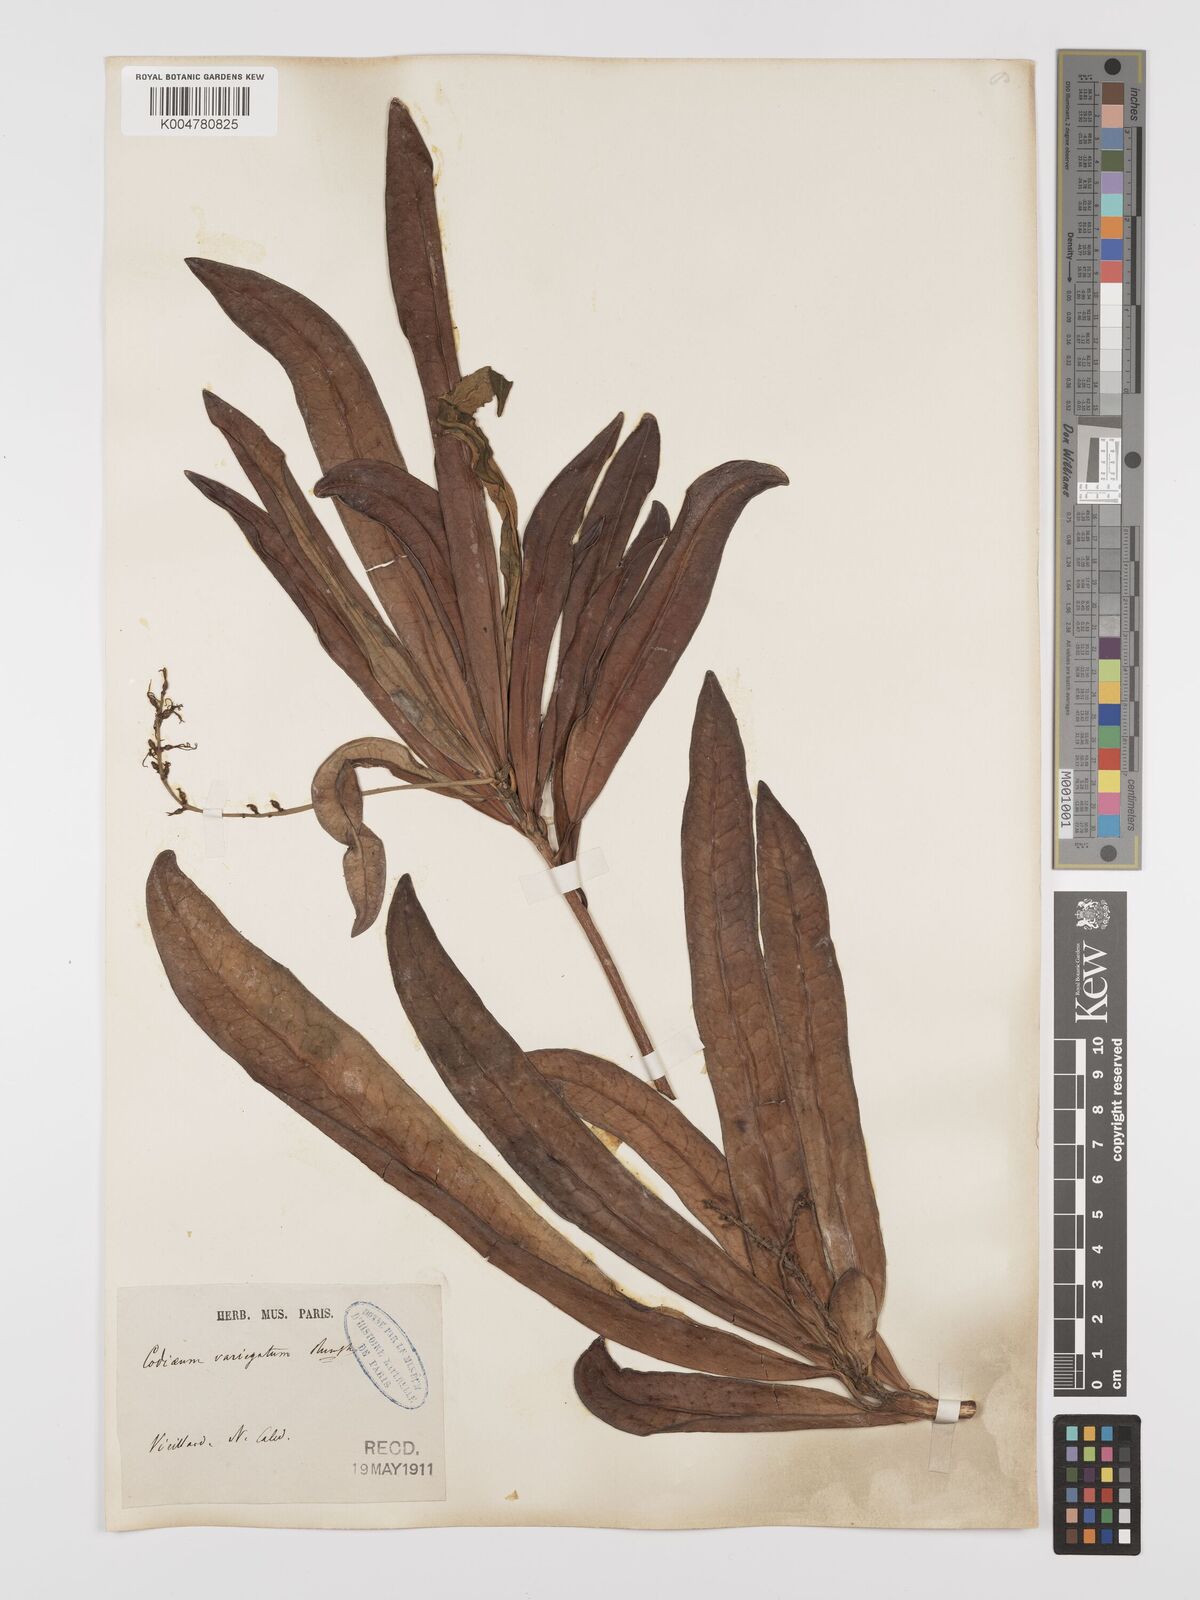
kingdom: Plantae
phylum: Tracheophyta
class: Magnoliopsida
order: Malpighiales
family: Euphorbiaceae
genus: Codiaeum
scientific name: Codiaeum variegatum
